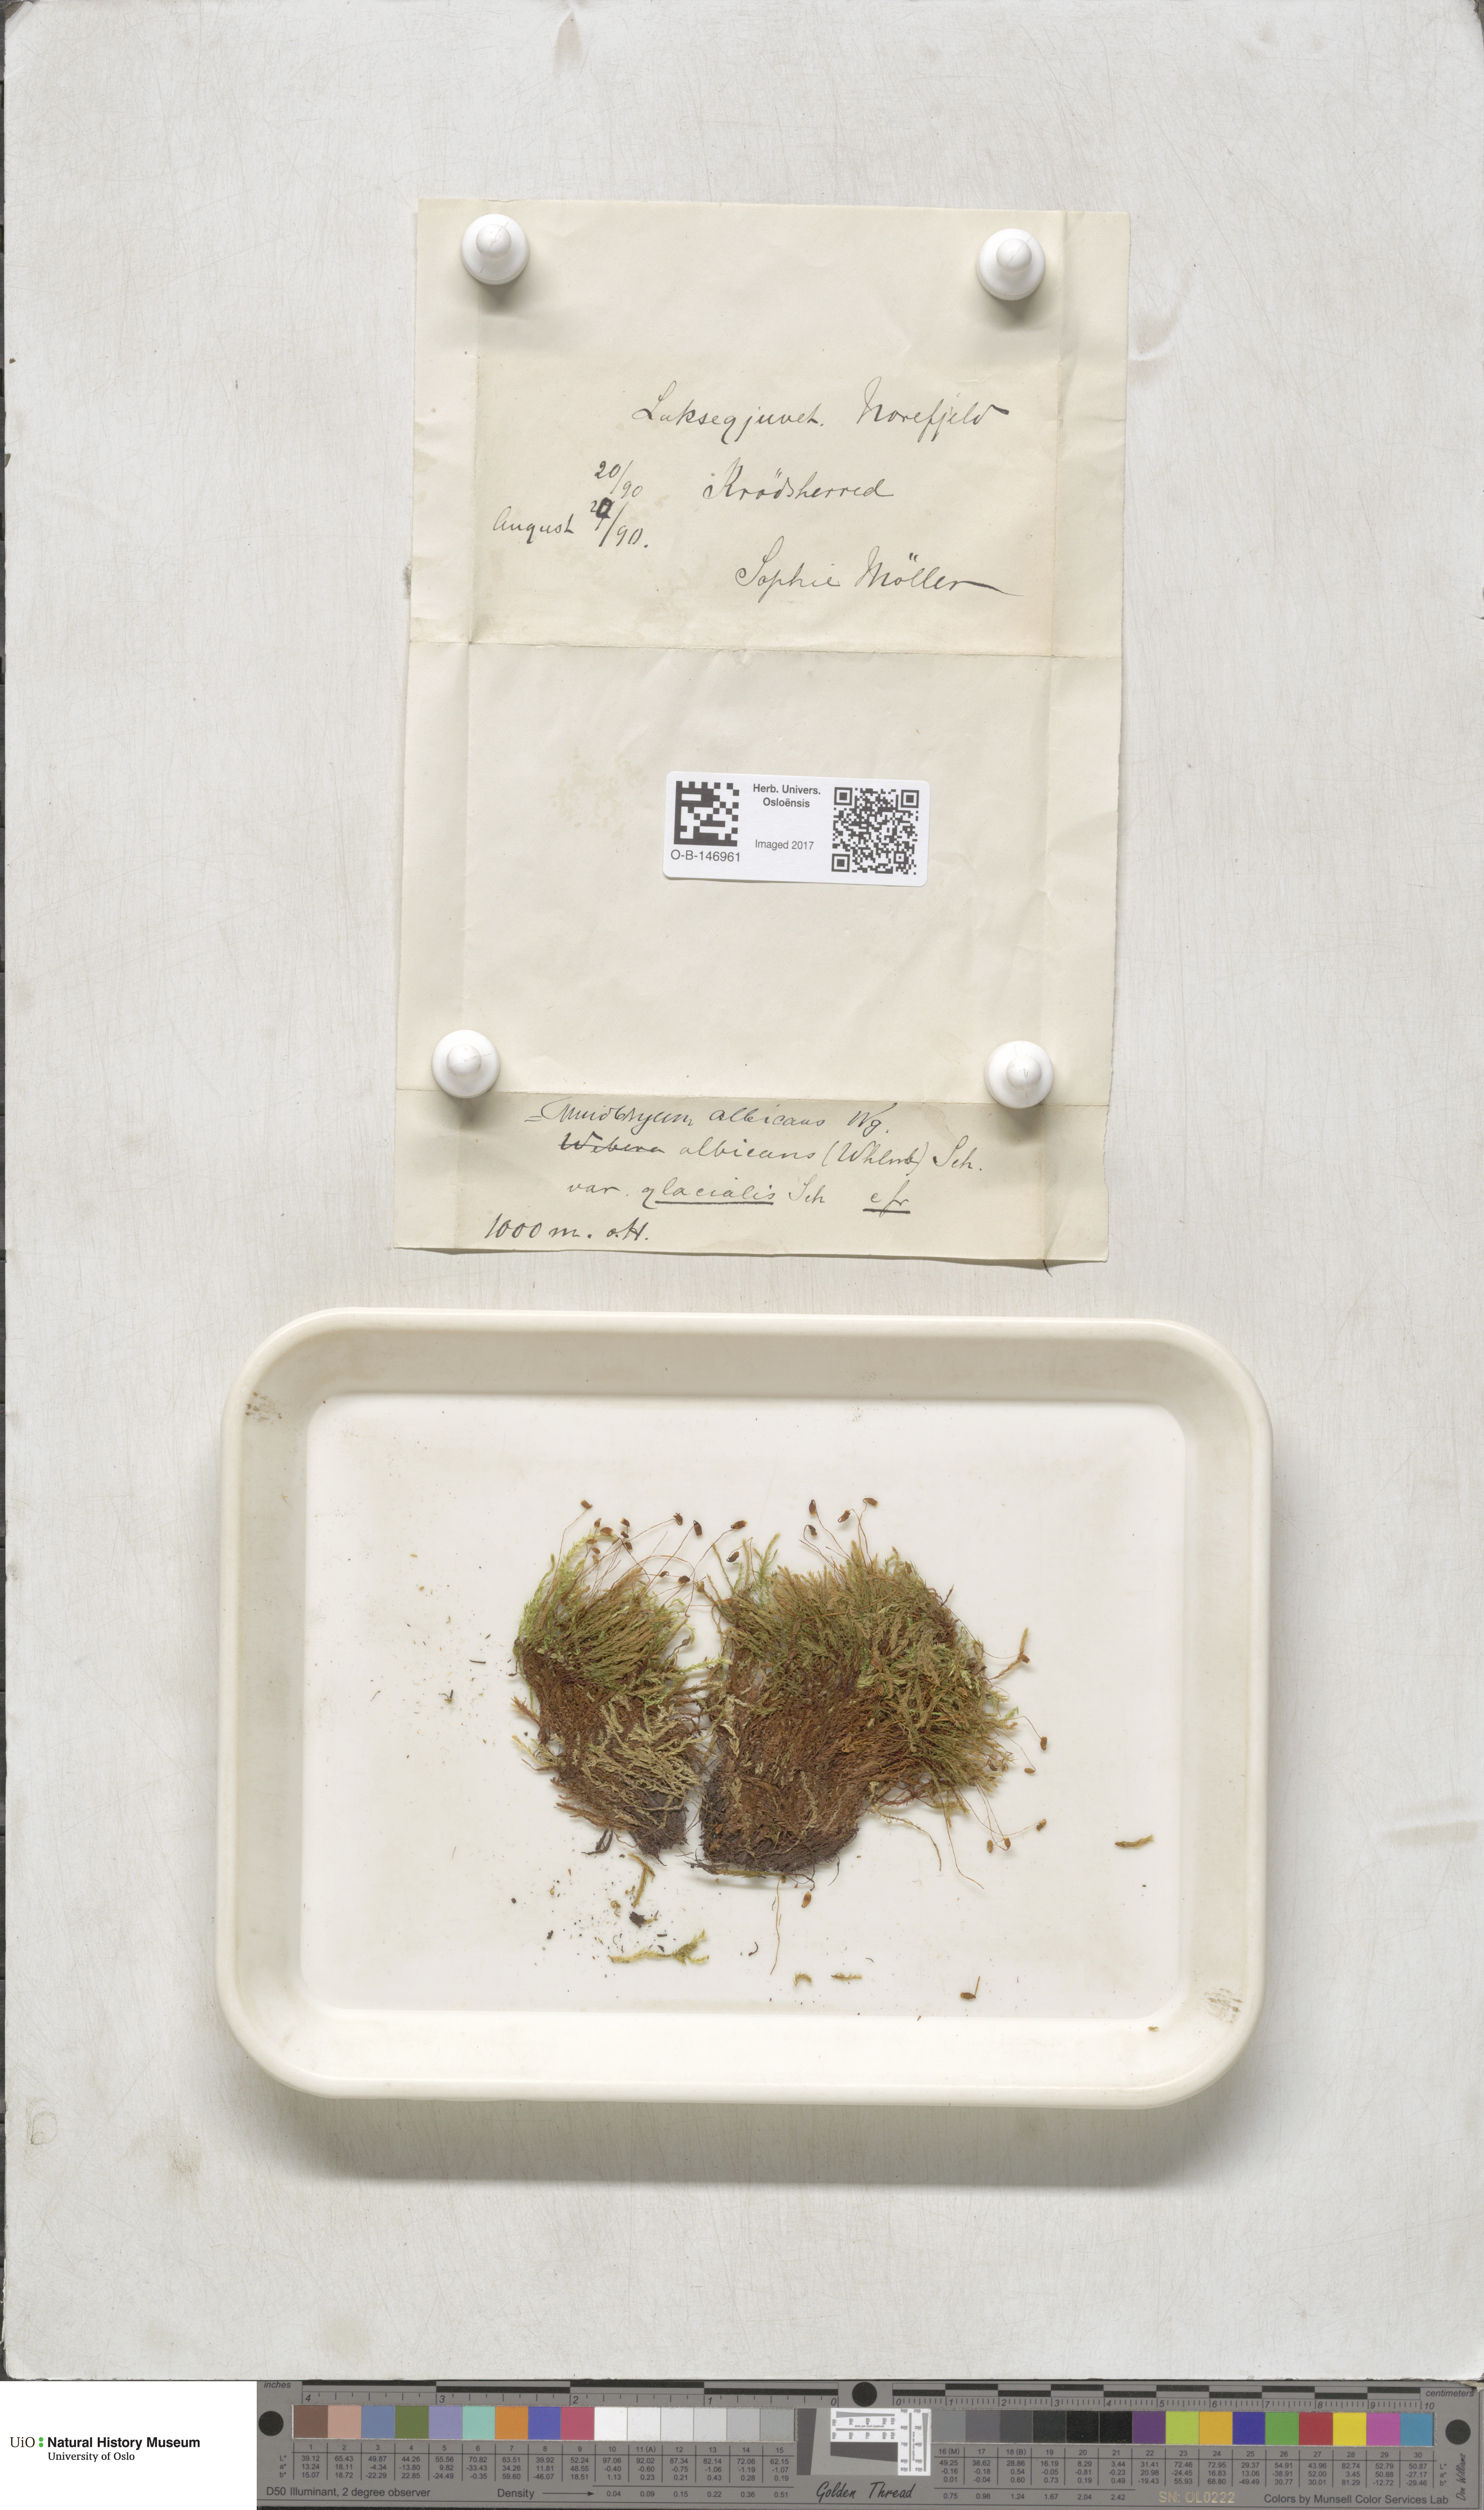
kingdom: Plantae
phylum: Bryophyta
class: Bryopsida
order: Bryales
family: Mniaceae
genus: Pohlia
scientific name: Pohlia wahlenbergii
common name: Wahlenberg's nodding moss
